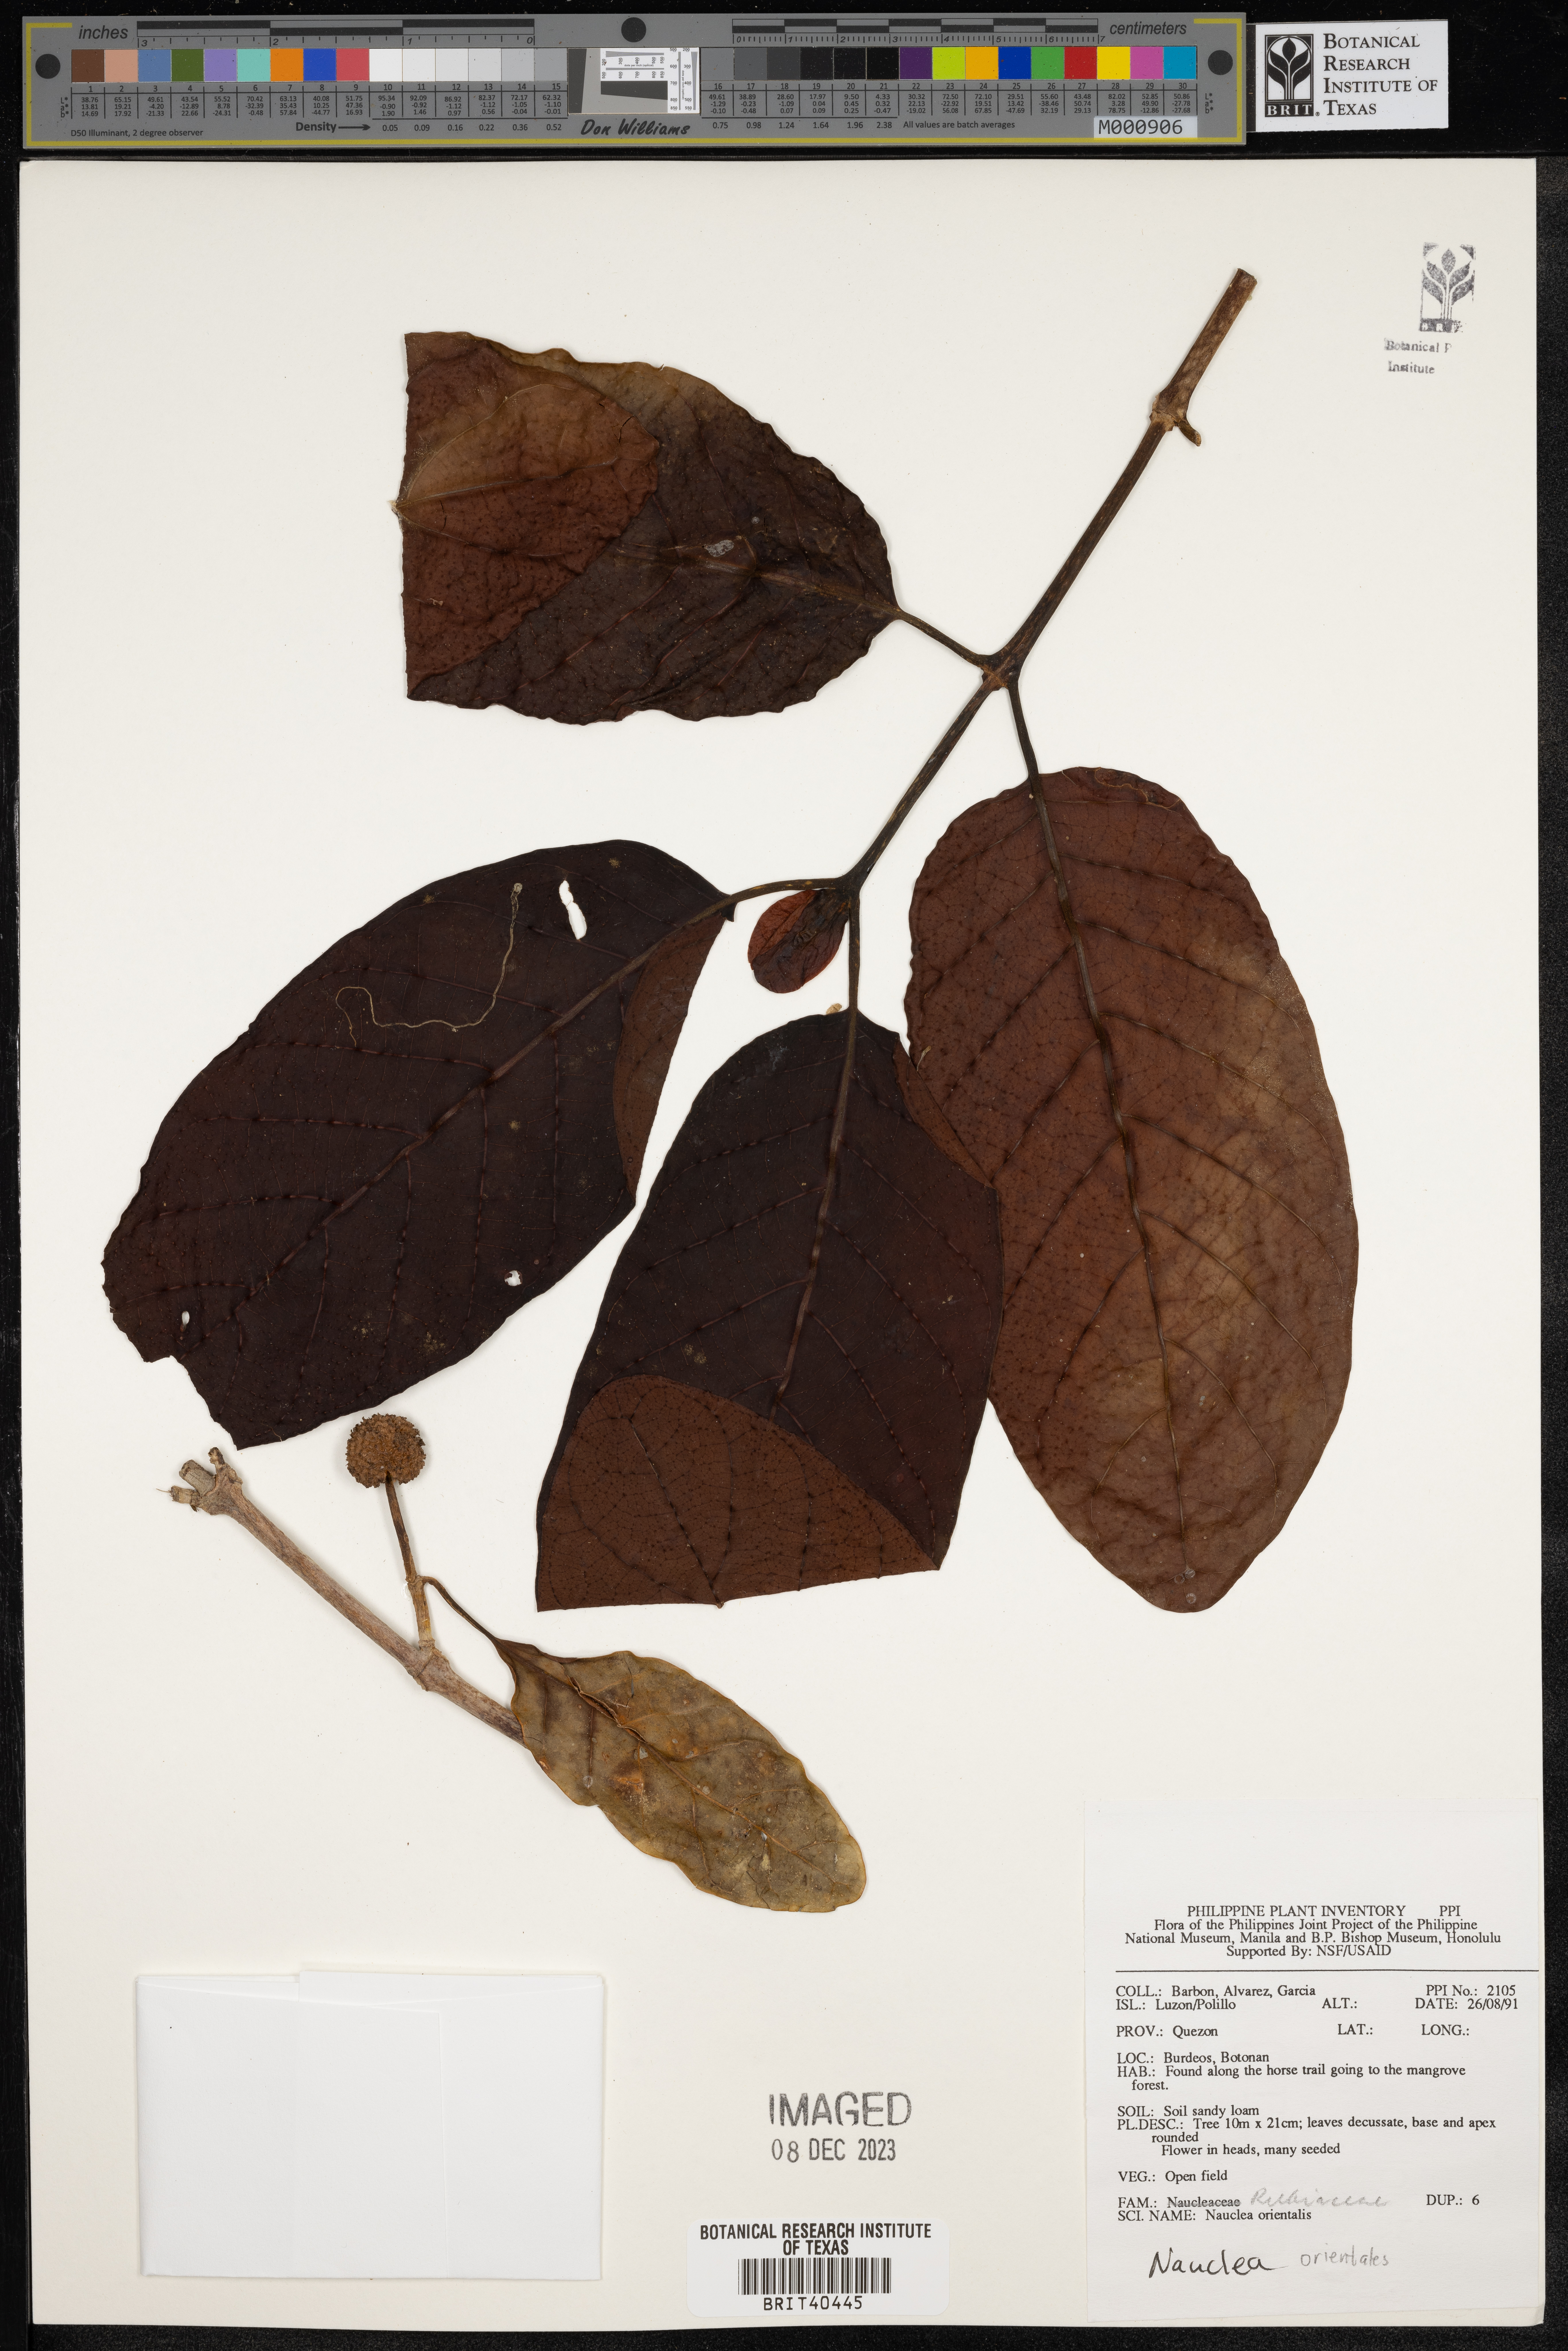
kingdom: Plantae
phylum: Tracheophyta
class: Magnoliopsida
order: Gentianales
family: Rubiaceae
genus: Nauclea
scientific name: Nauclea orientalis
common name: Leichhardt-pine
